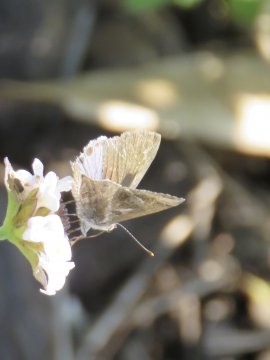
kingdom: Animalia
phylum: Arthropoda
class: Insecta
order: Lepidoptera
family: Lycaenidae
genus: Strymon
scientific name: Strymon bazochii
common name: Lantana Scrub-Hairstreak
